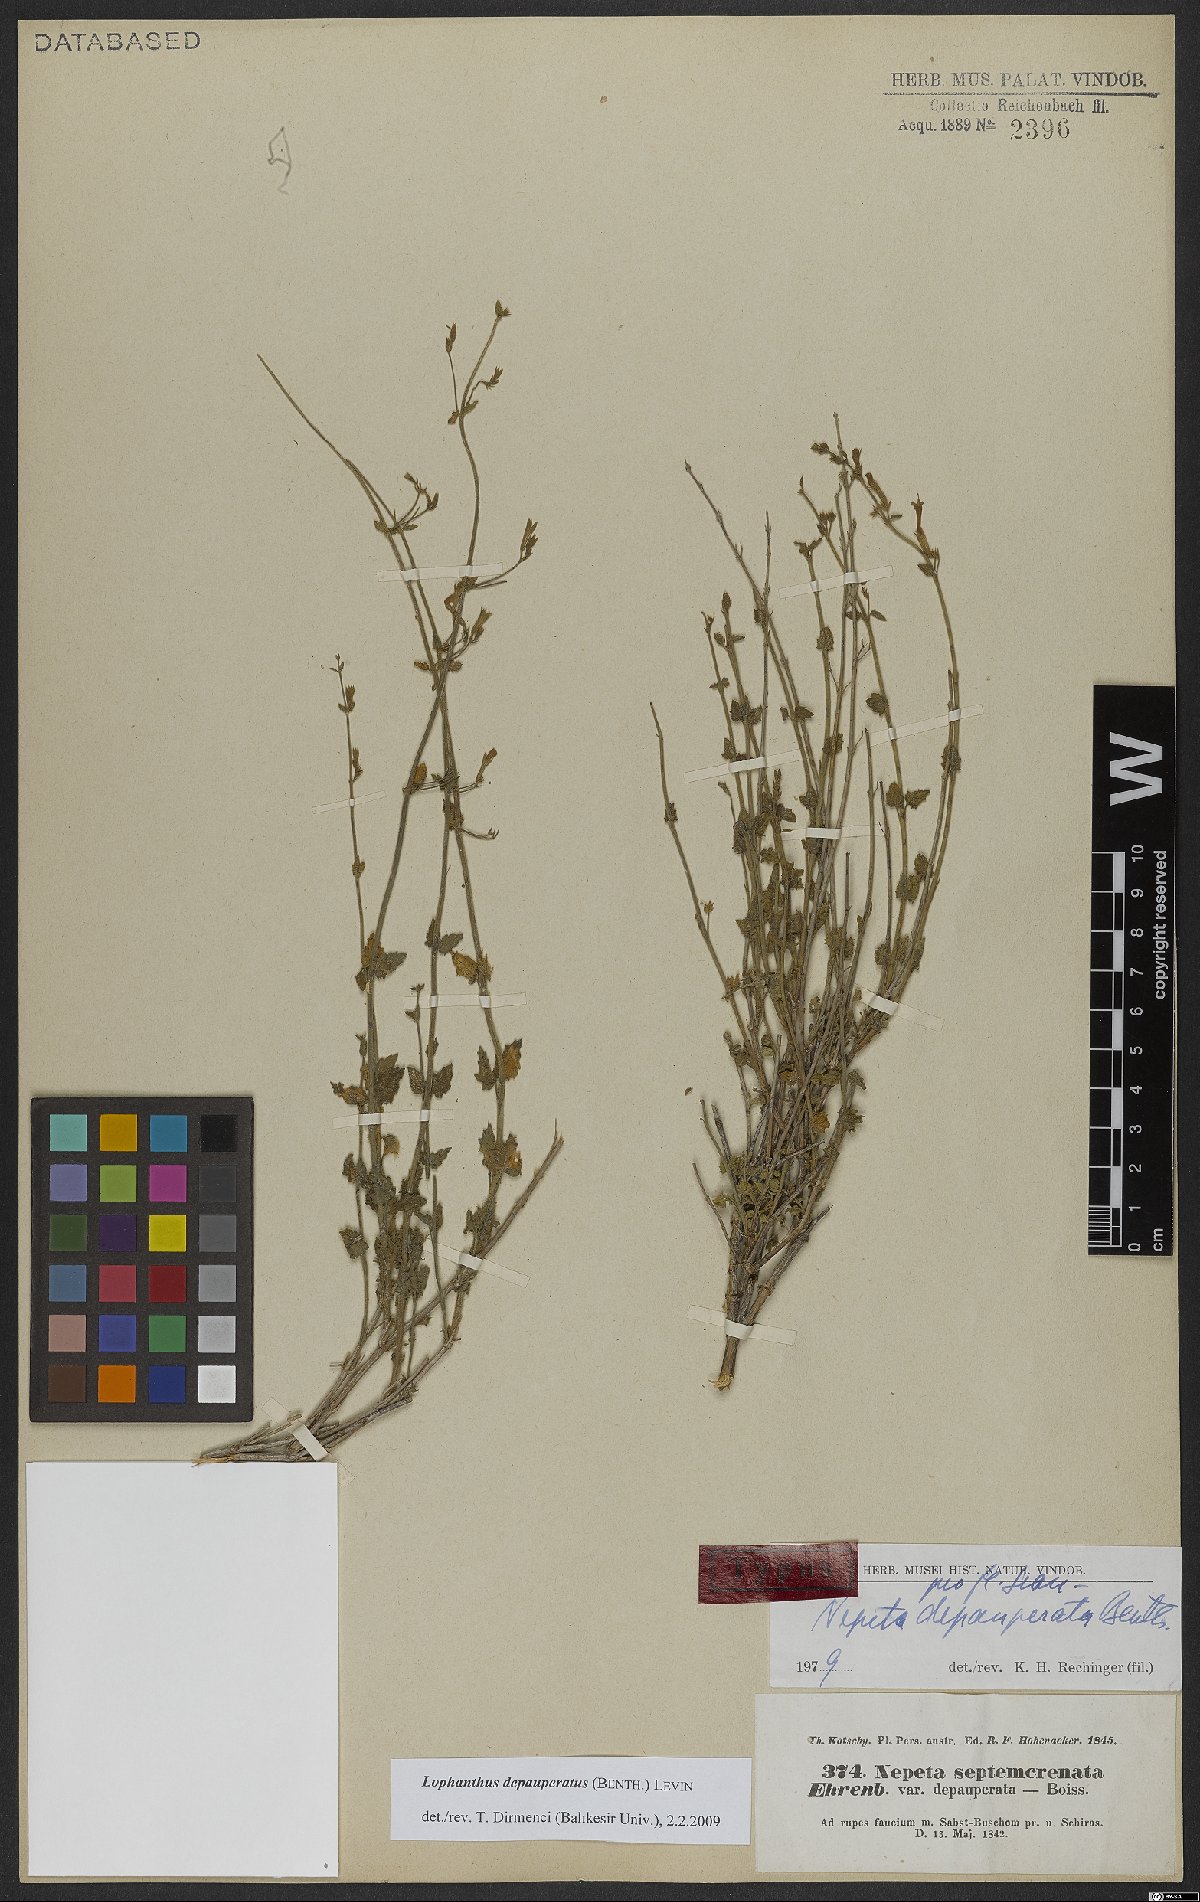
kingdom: Plantae
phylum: Tracheophyta
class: Magnoliopsida
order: Lamiales
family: Lamiaceae
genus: Nepeta
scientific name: Nepeta depauperata
